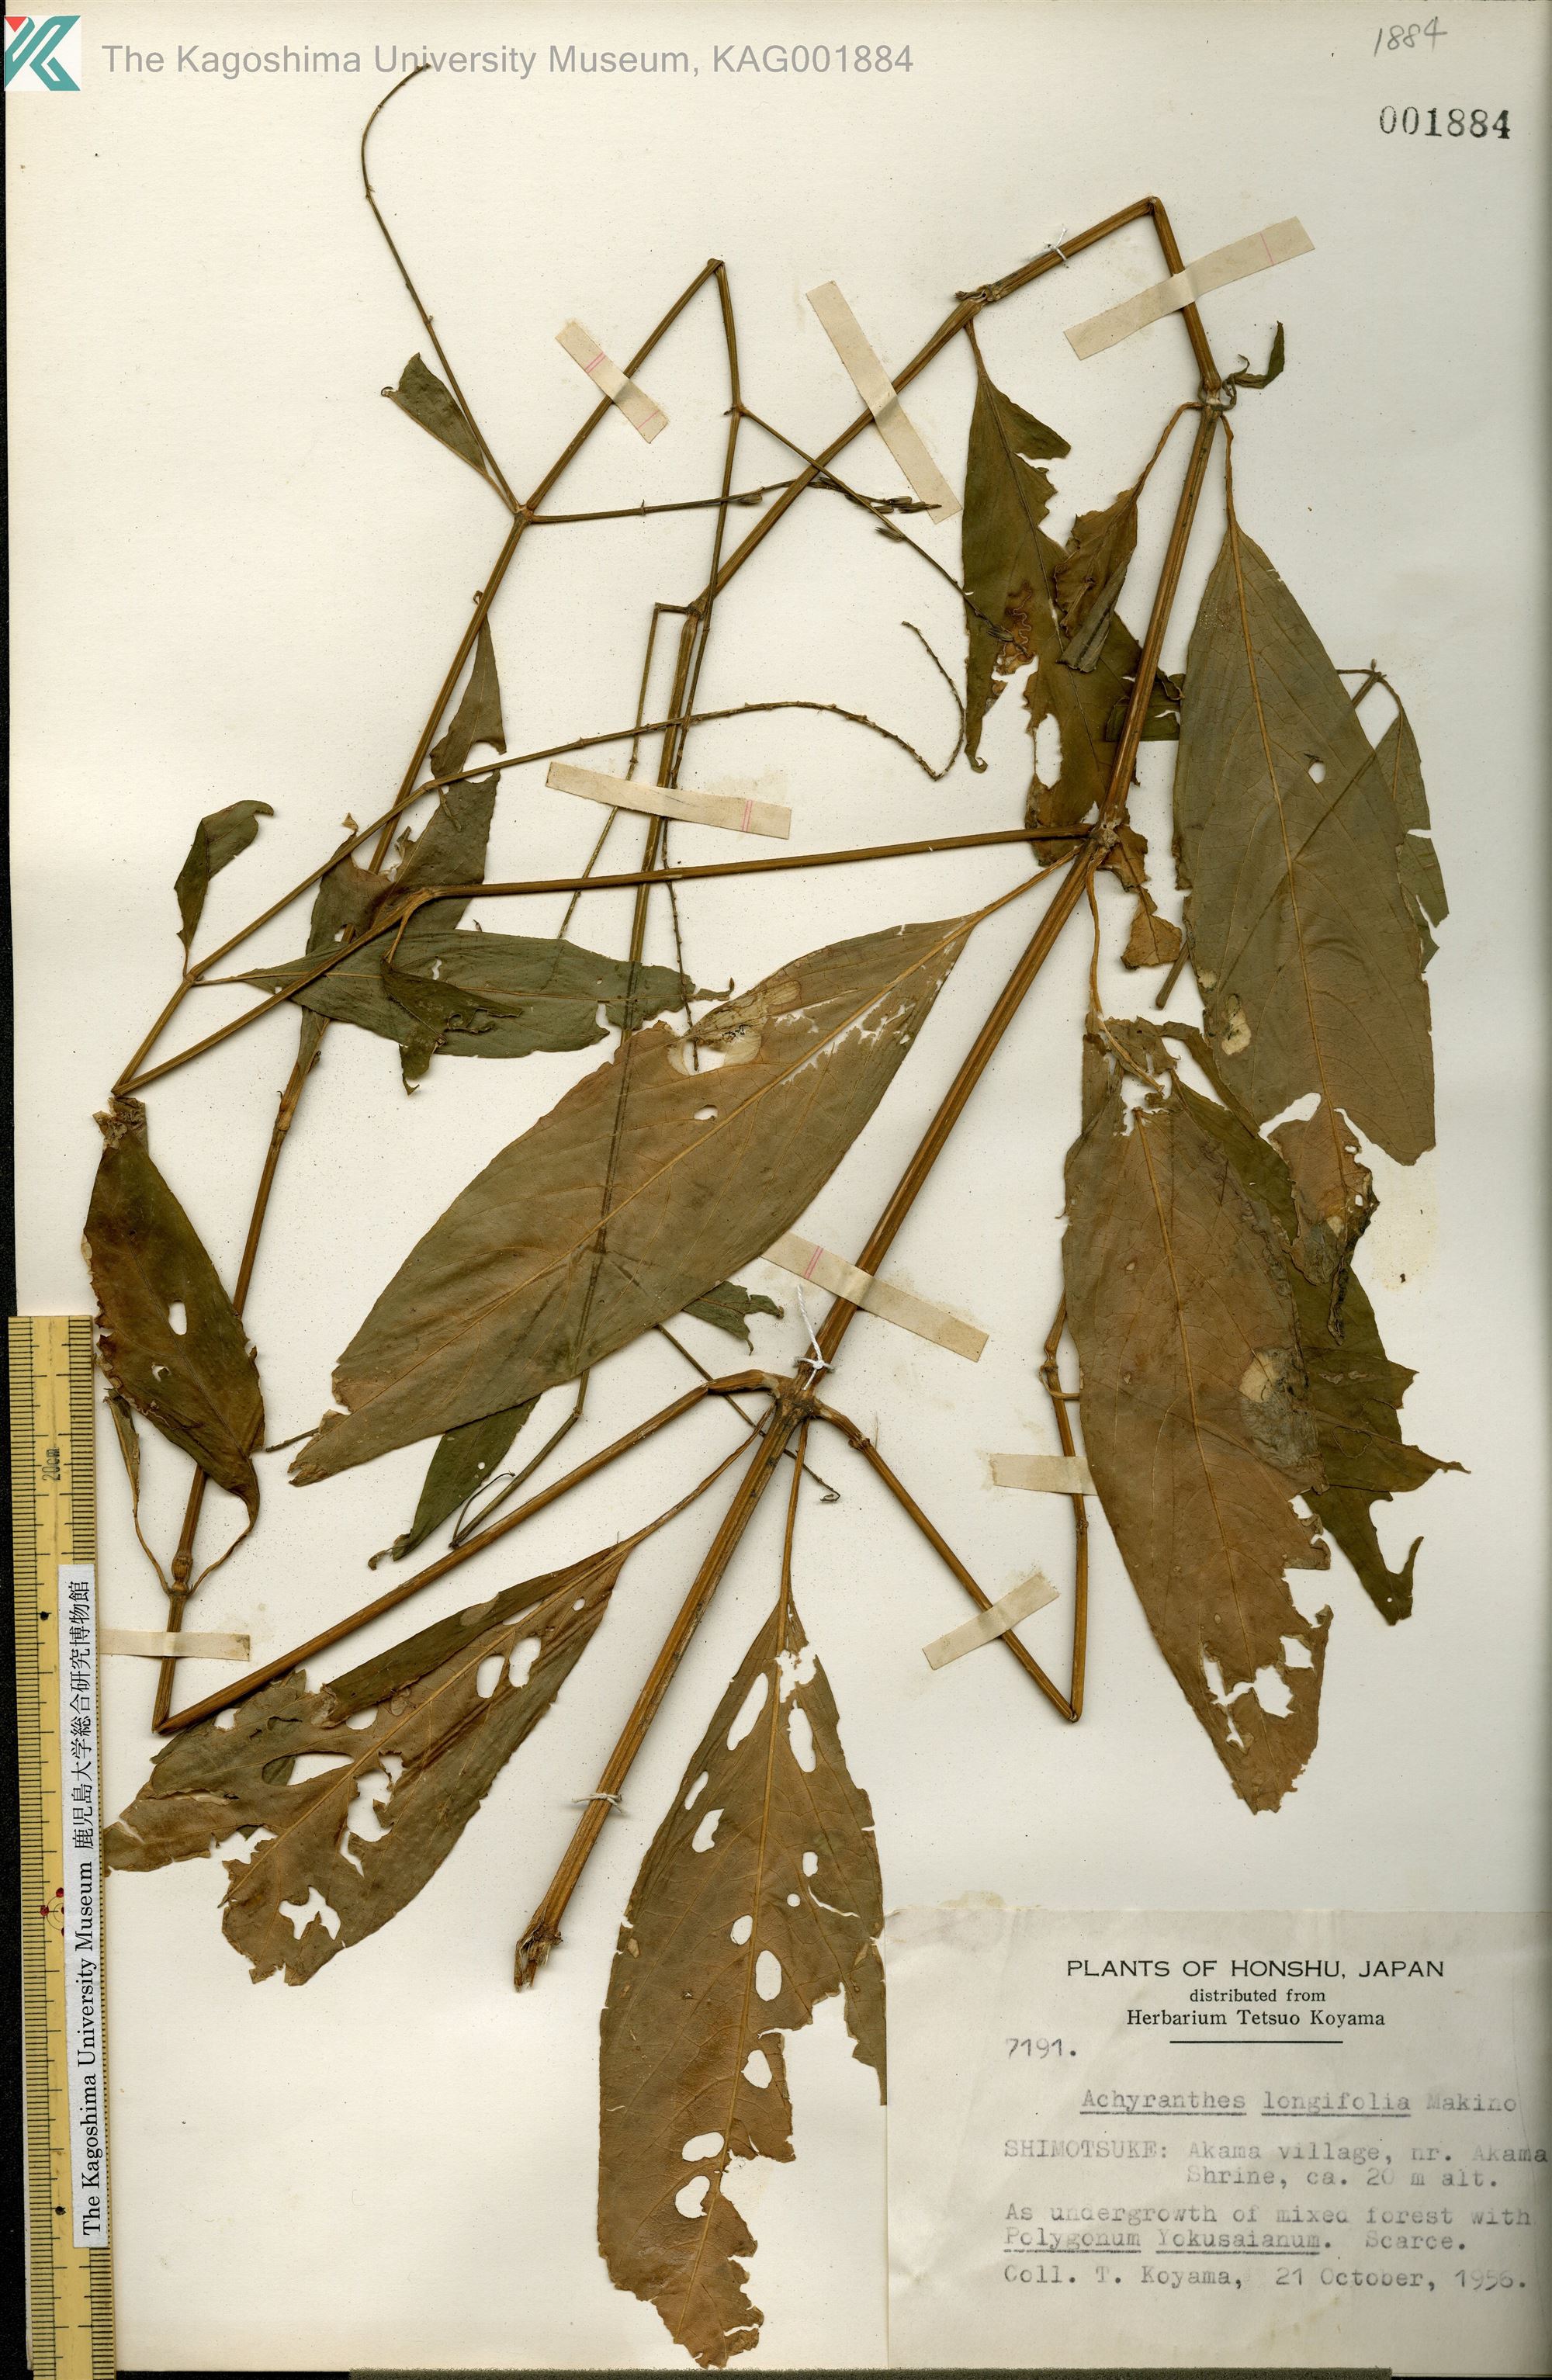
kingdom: Plantae
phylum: Tracheophyta
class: Magnoliopsida
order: Caryophyllales
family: Amaranthaceae
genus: Achyranthes
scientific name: Achyranthes bidentata
